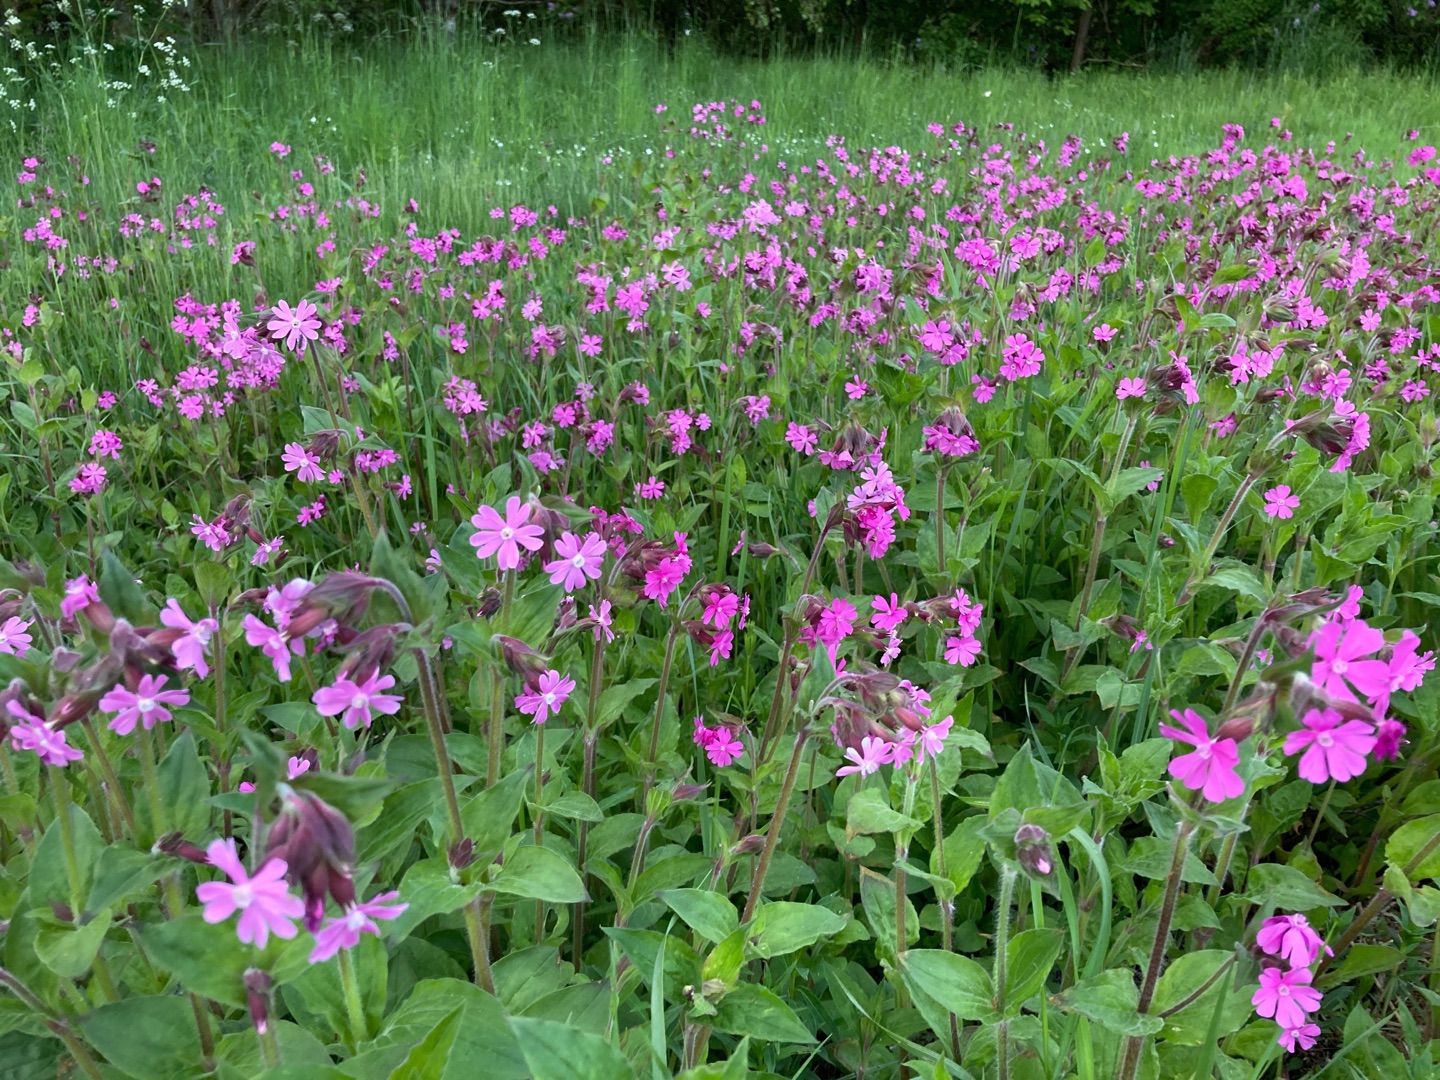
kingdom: Plantae
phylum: Tracheophyta
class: Magnoliopsida
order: Caryophyllales
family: Caryophyllaceae
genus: Silene
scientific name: Silene dioica
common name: Dagpragtstjerne
